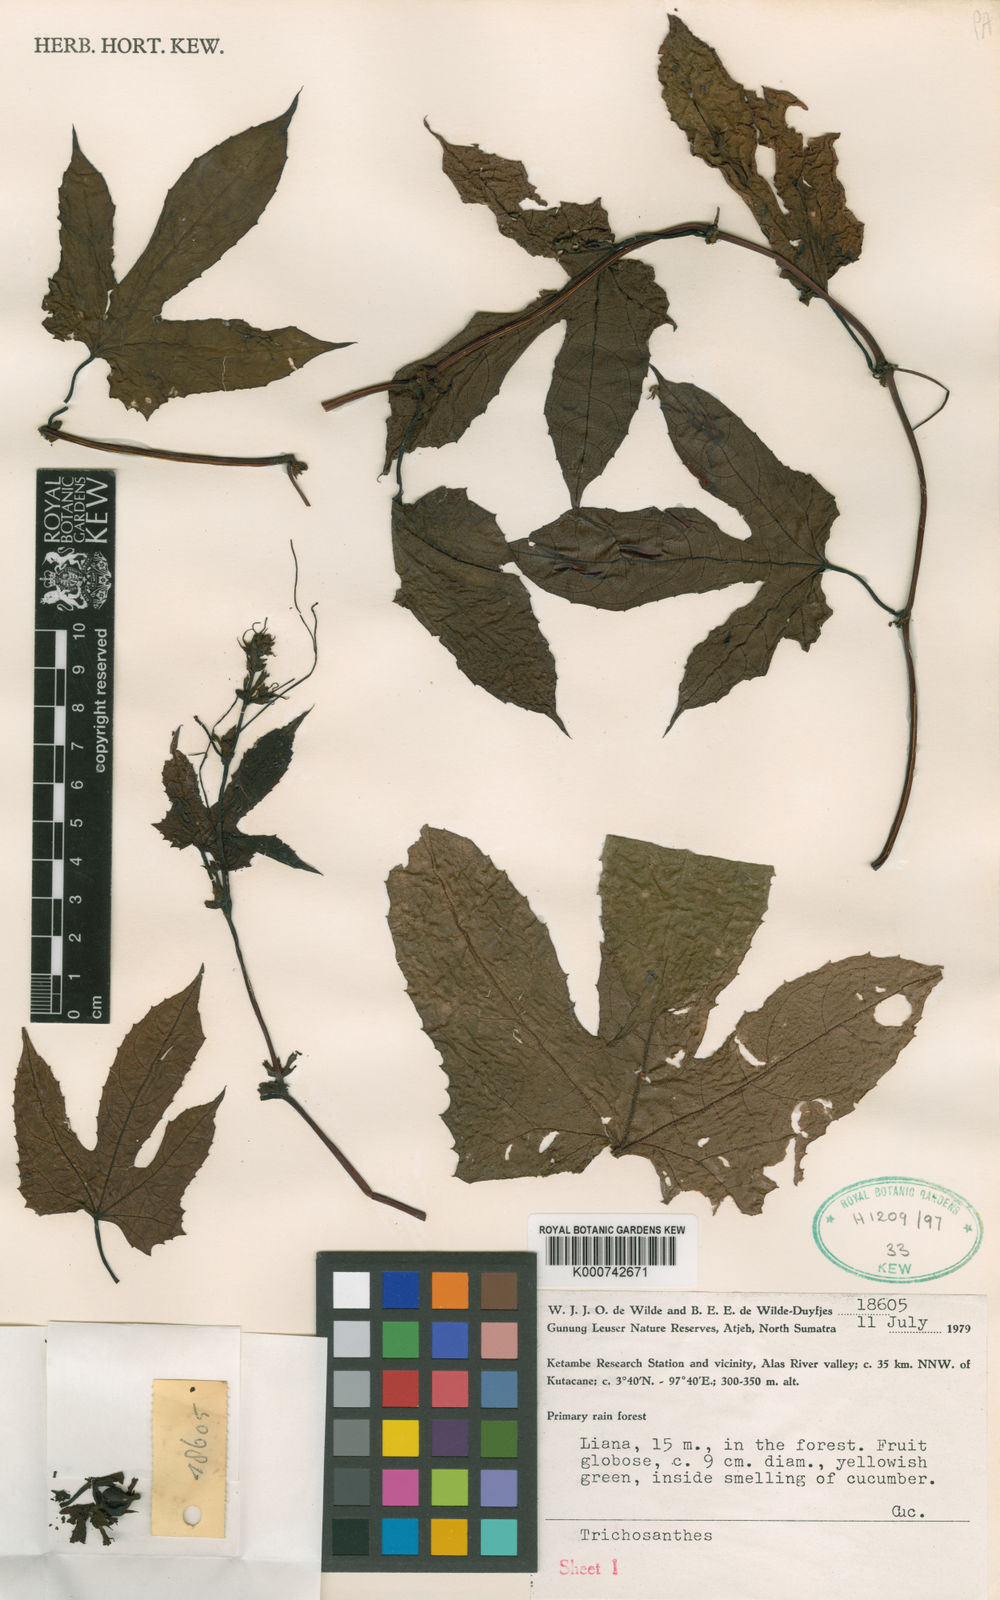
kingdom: Plantae
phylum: Tracheophyta
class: Magnoliopsida
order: Cucurbitales
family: Cucurbitaceae
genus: Trichosanthes
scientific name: Trichosanthes leuserensis
